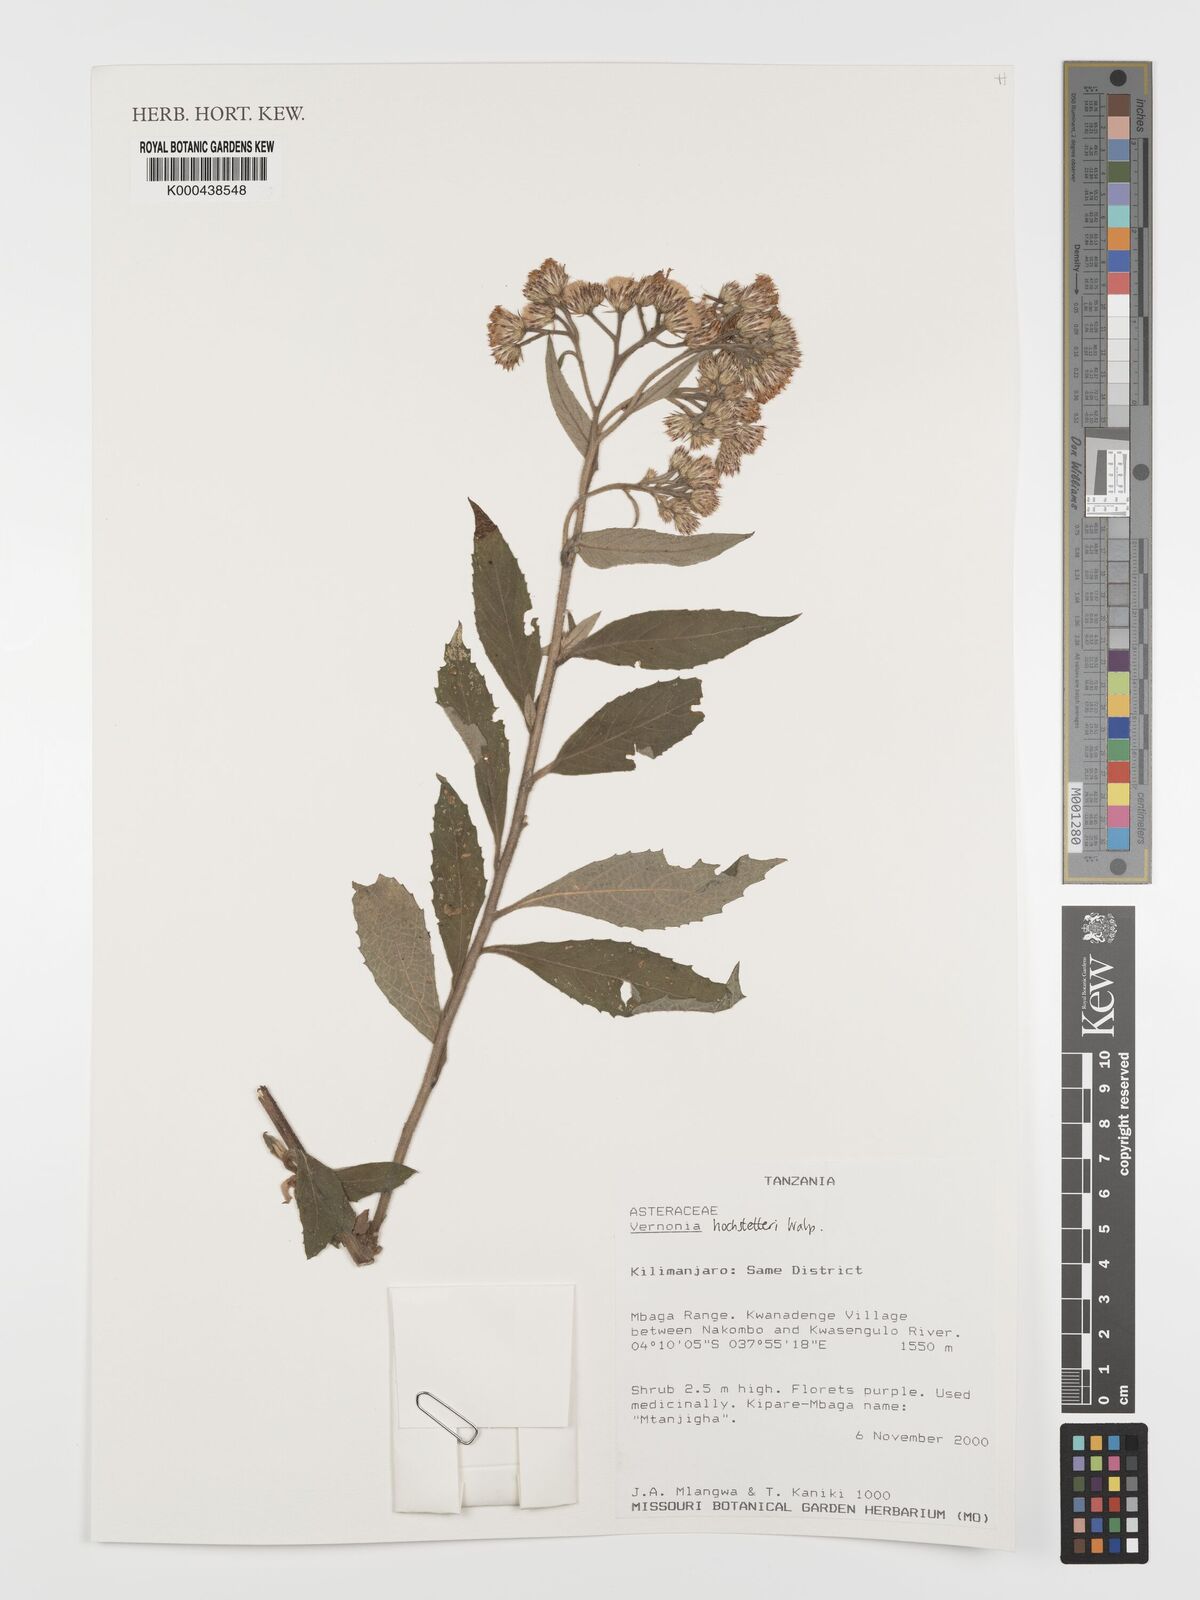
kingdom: Plantae
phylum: Tracheophyta
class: Magnoliopsida
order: Asterales
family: Asteraceae
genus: Vernonia
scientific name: Vernonia
